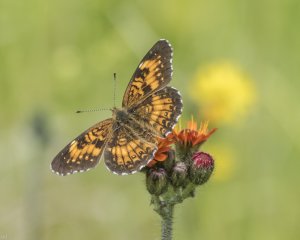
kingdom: Animalia
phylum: Arthropoda
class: Insecta
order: Lepidoptera
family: Nymphalidae
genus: Chlosyne
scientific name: Chlosyne harrisii
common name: Harris's Checkerspot
